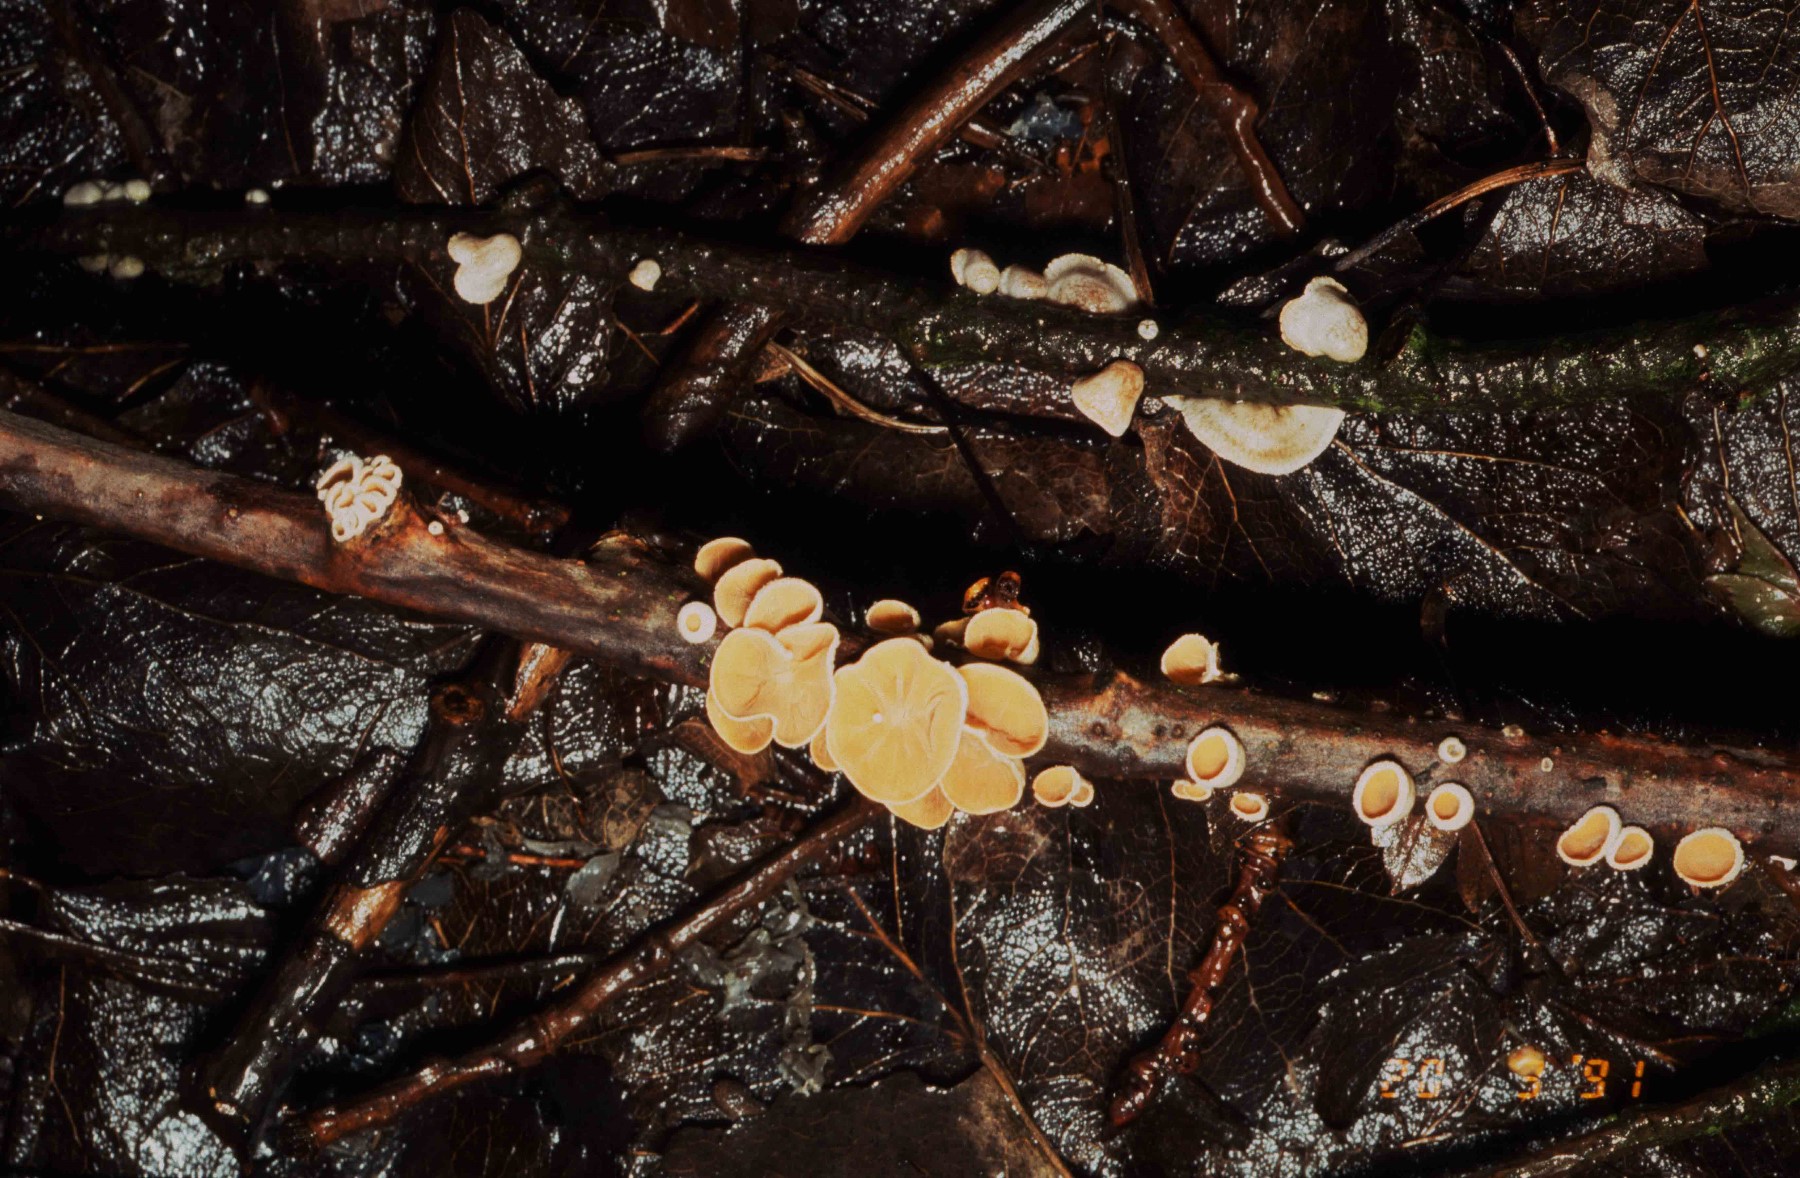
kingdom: Fungi
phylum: Basidiomycota
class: Agaricomycetes
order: Agaricales
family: Schizophyllaceae
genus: Schizophyllum
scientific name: Schizophyllum amplum
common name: poppel-hængeøre
